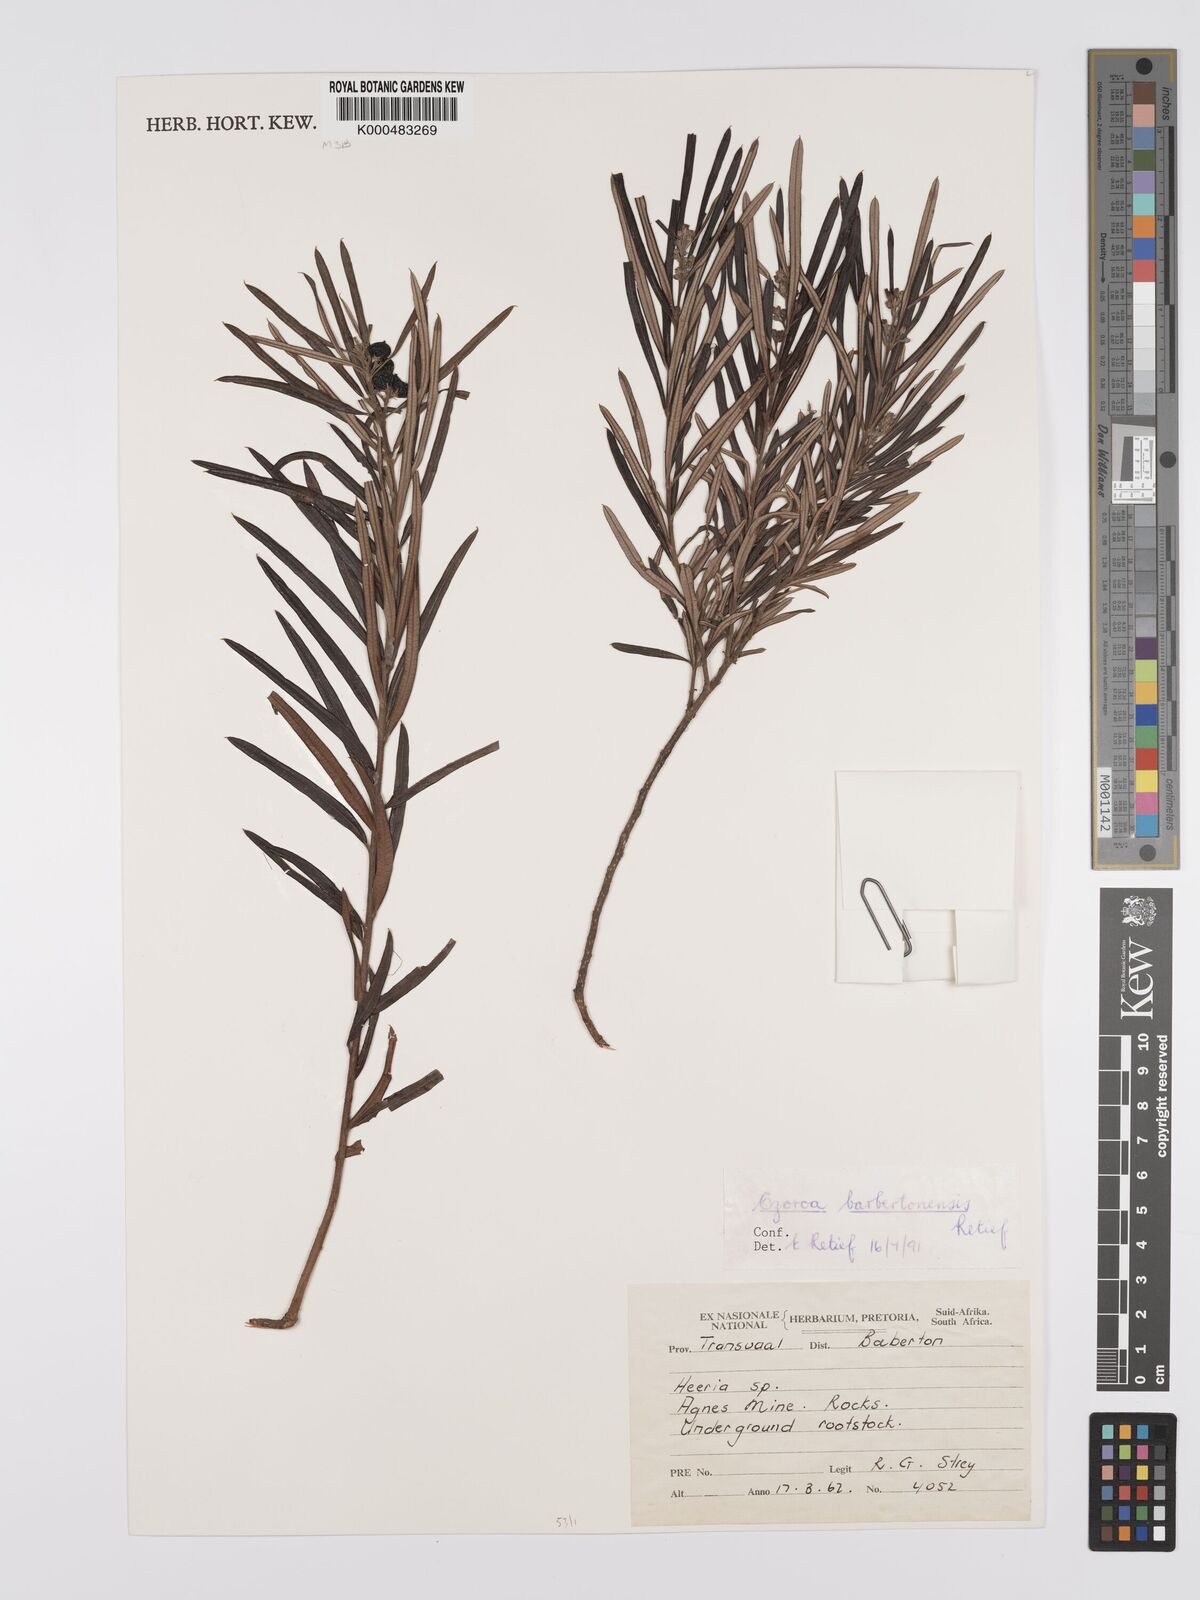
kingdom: Plantae
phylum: Tracheophyta
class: Magnoliopsida
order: Sapindales
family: Anacardiaceae
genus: Ozoroa
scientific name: Ozoroa barbertonensis
